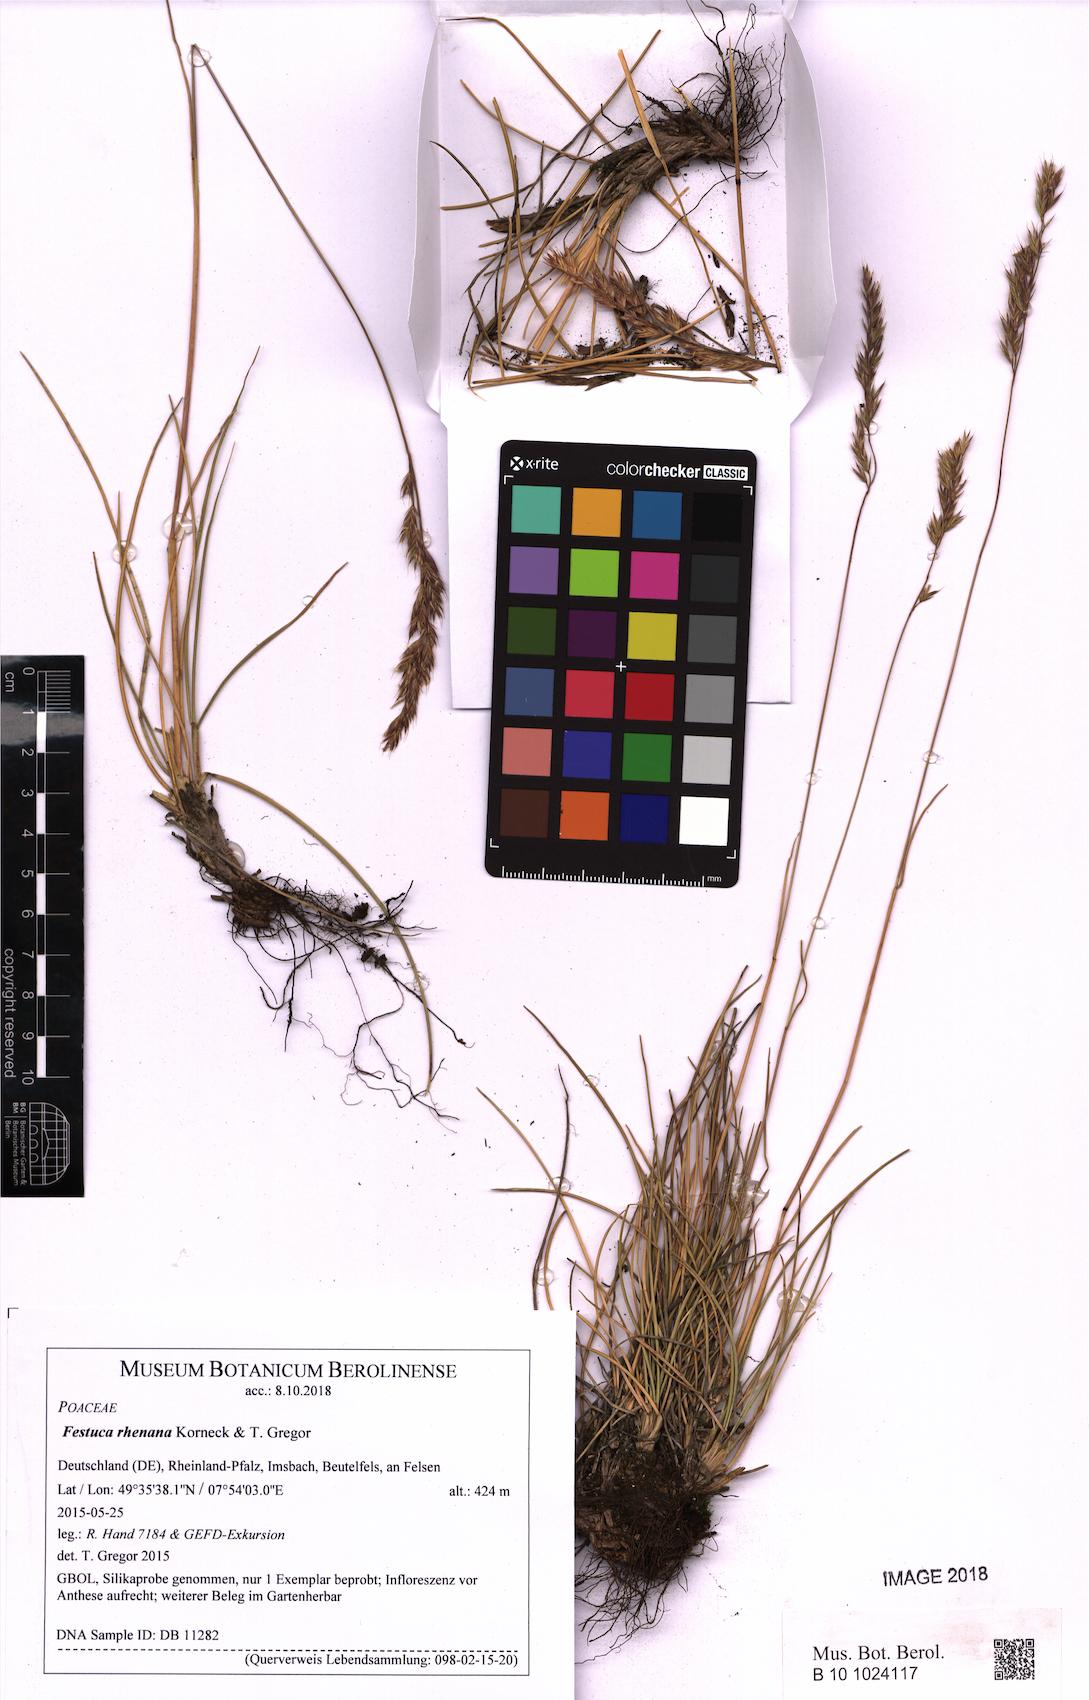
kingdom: Plantae
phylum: Tracheophyta
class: Liliopsida
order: Poales
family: Poaceae
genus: Festuca
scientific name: Festuca heteropachys
